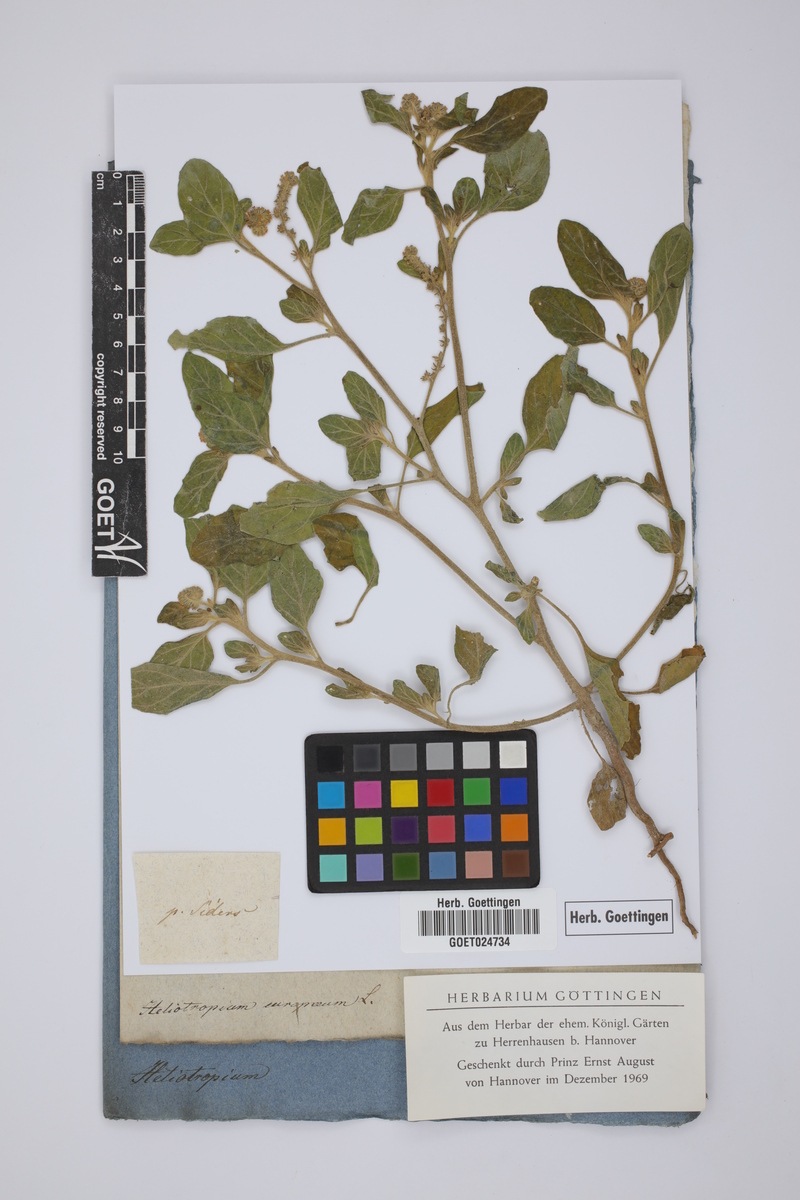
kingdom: Plantae
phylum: Tracheophyta
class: Magnoliopsida
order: Boraginales
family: Heliotropiaceae
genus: Heliotropium
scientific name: Heliotropium europaeum
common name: European heliotrope
